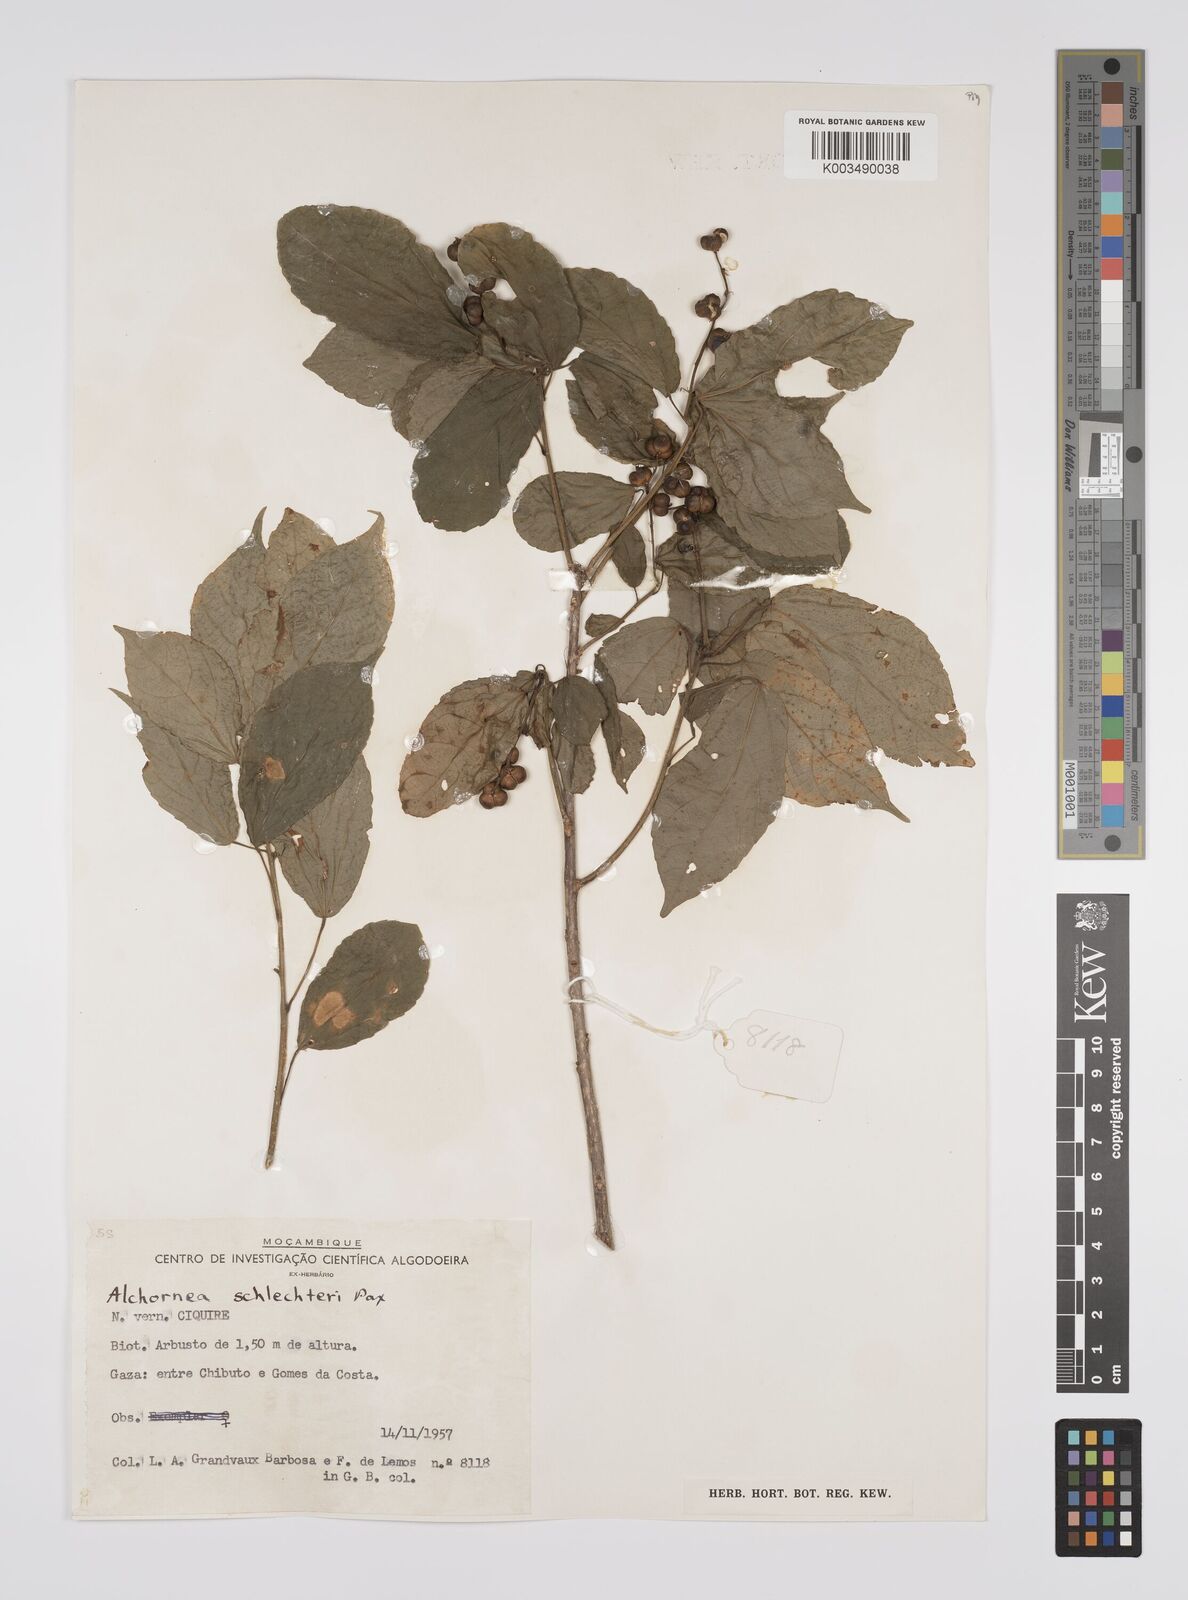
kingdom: Plantae
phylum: Tracheophyta
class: Magnoliopsida
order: Malpighiales
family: Euphorbiaceae
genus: Alchornea
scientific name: Alchornea laxiflora
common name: Lowveld bead-string
